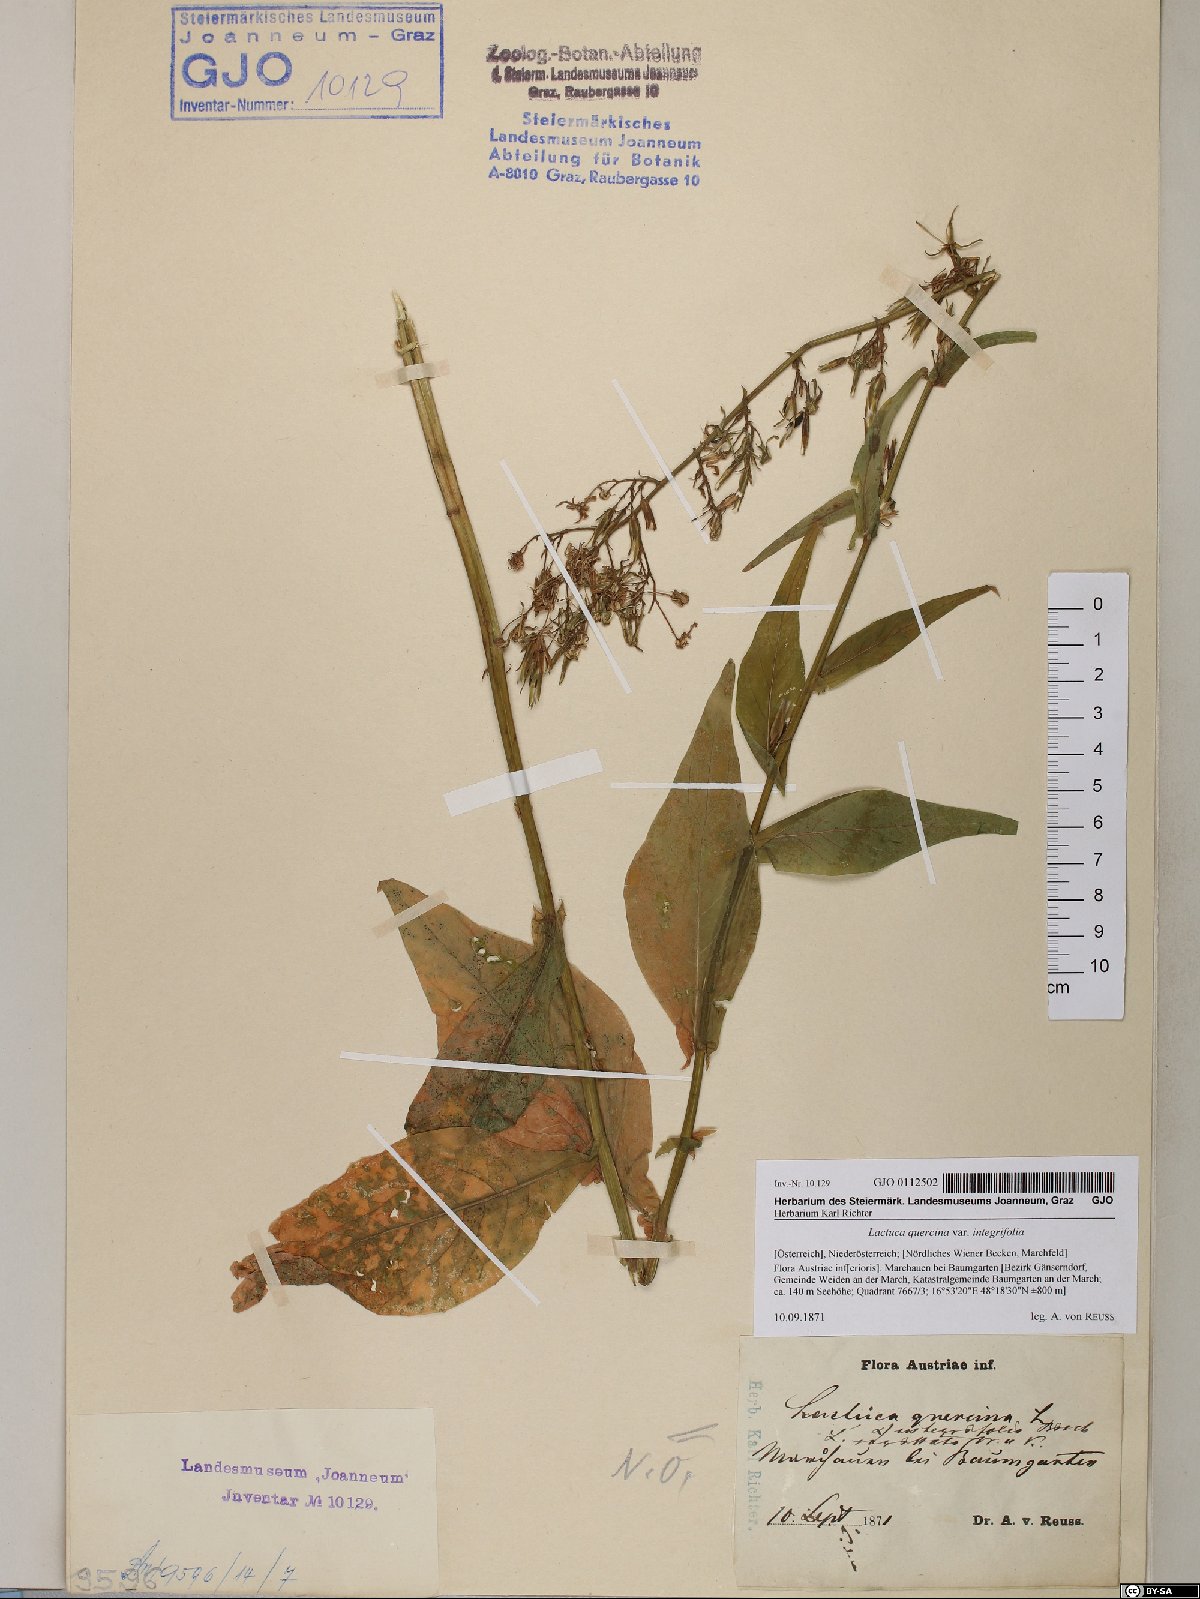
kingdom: Plantae
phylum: Tracheophyta
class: Magnoliopsida
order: Asterales
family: Asteraceae
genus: Lactuca
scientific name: Lactuca quercina
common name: Wild lettuce
